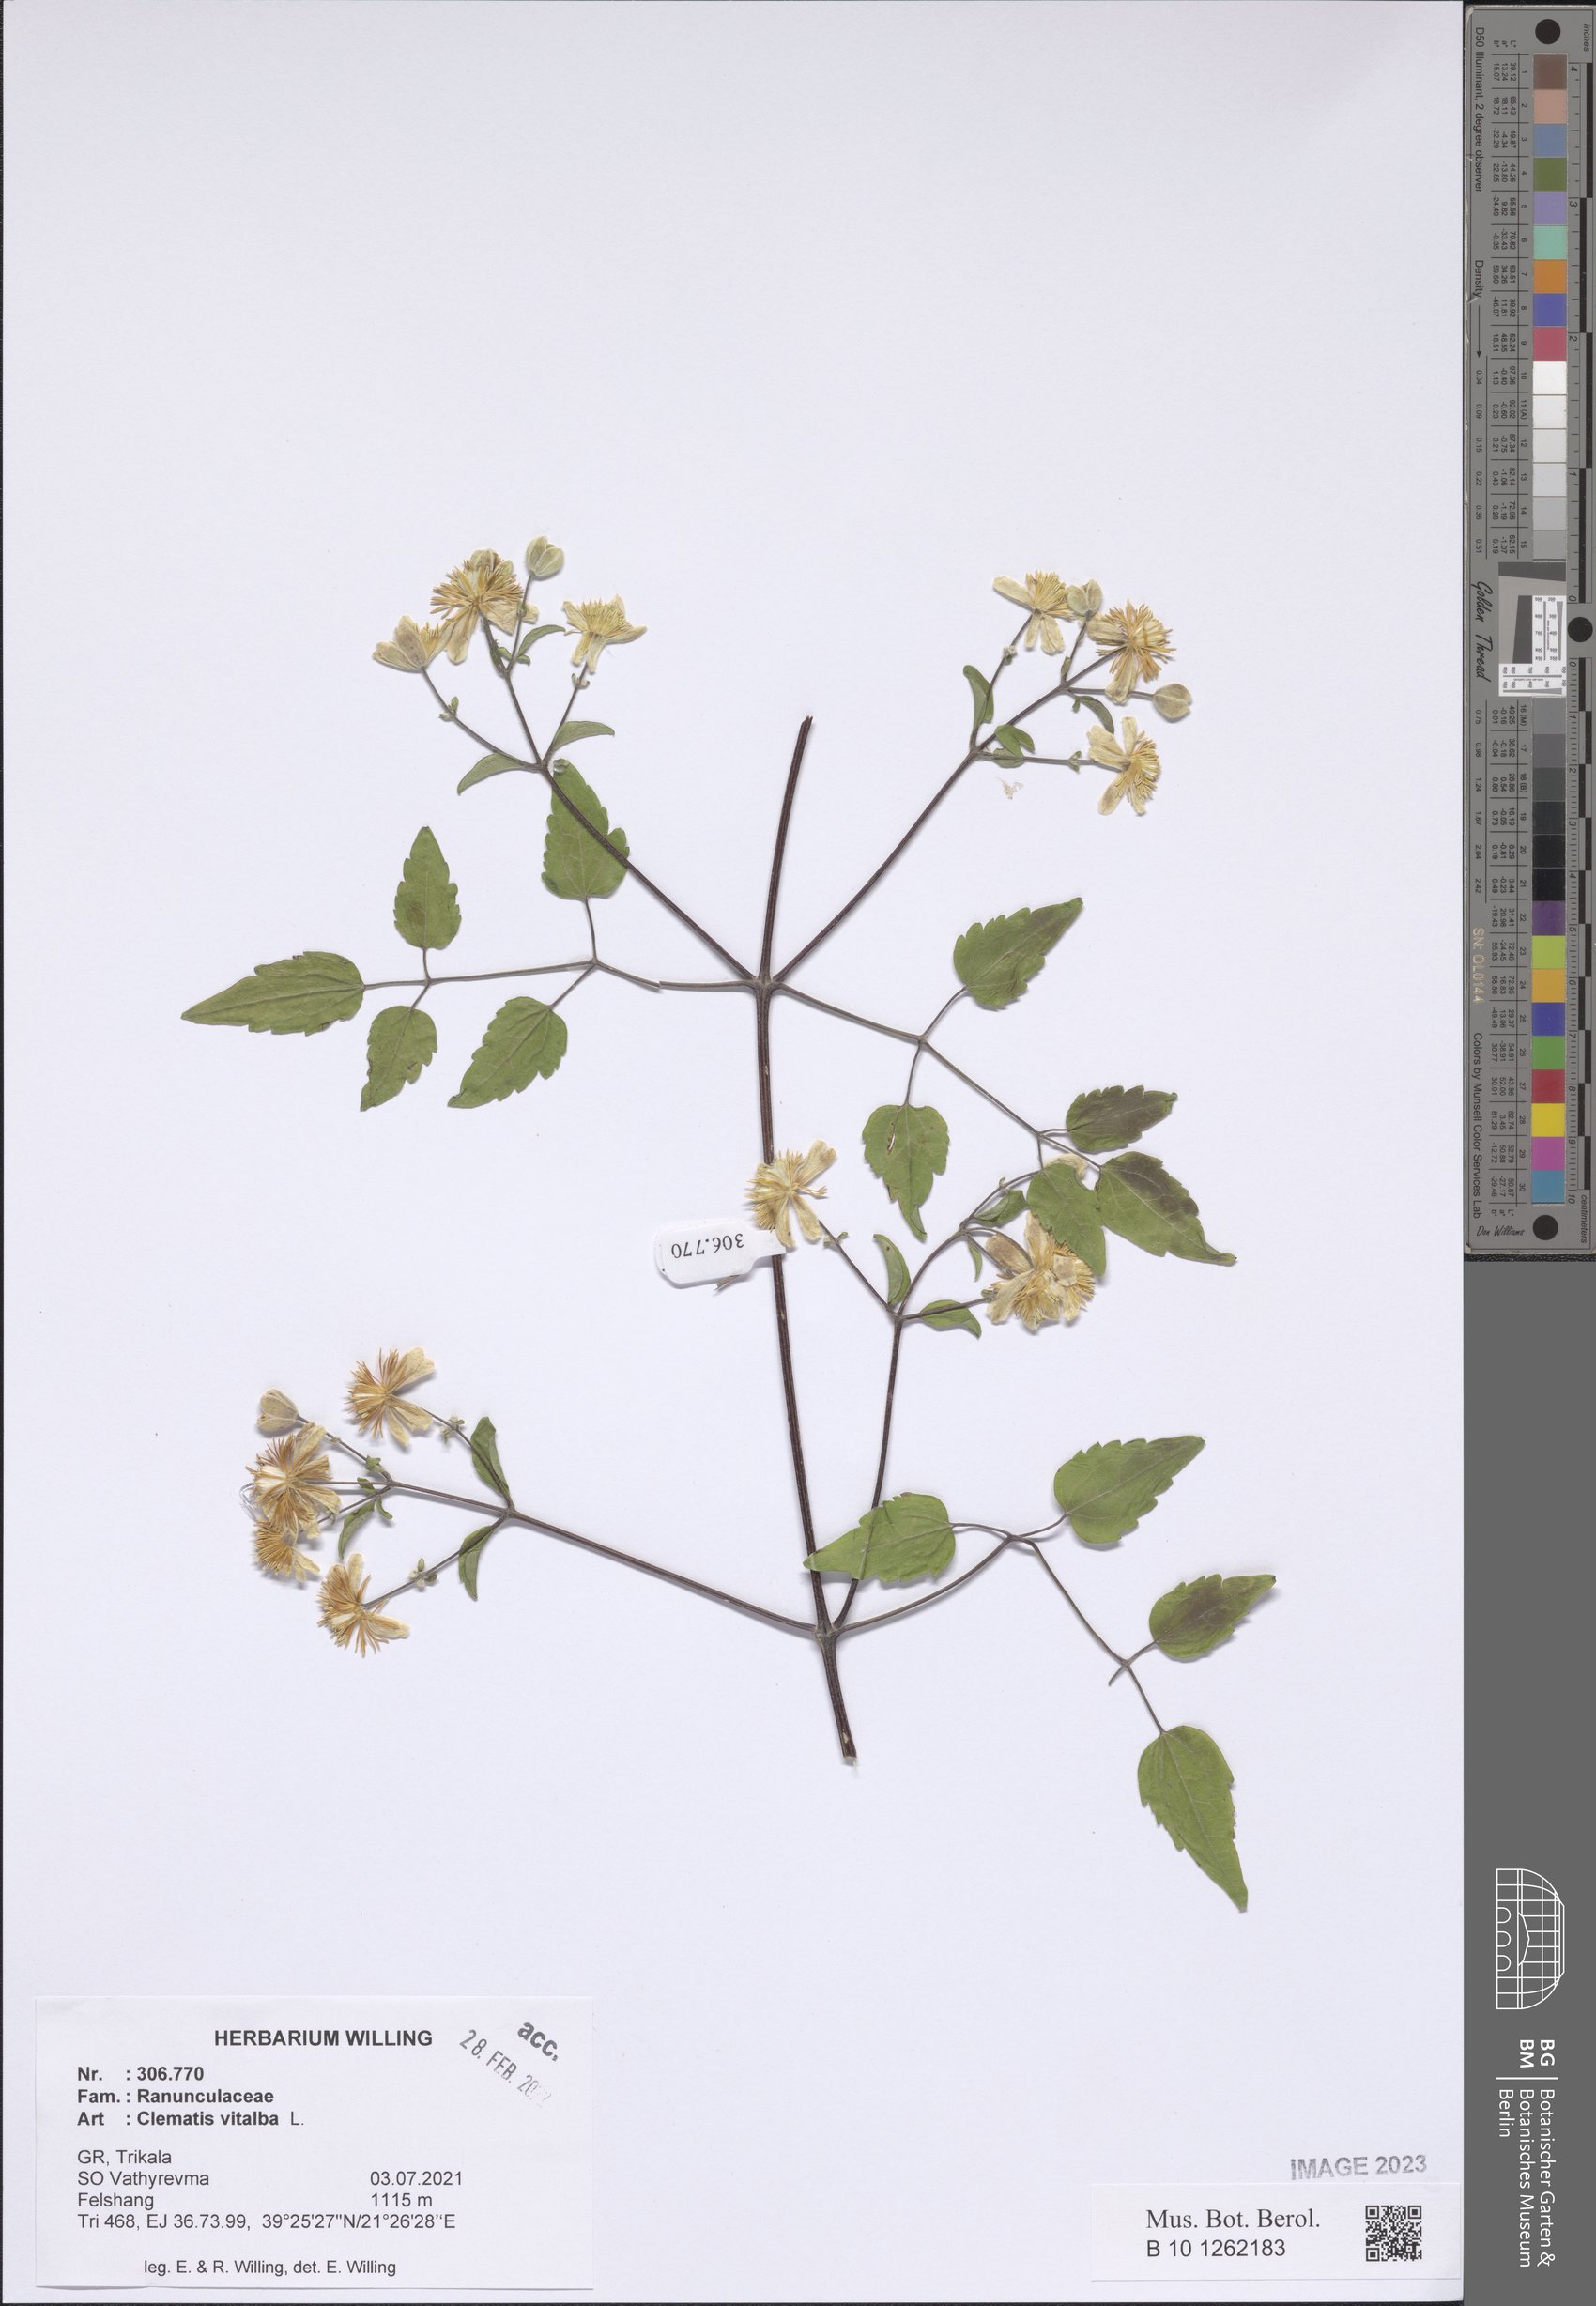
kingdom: Plantae
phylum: Tracheophyta
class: Magnoliopsida
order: Ranunculales
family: Ranunculaceae
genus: Clematis
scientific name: Clematis vitalba
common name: Evergreen clematis
